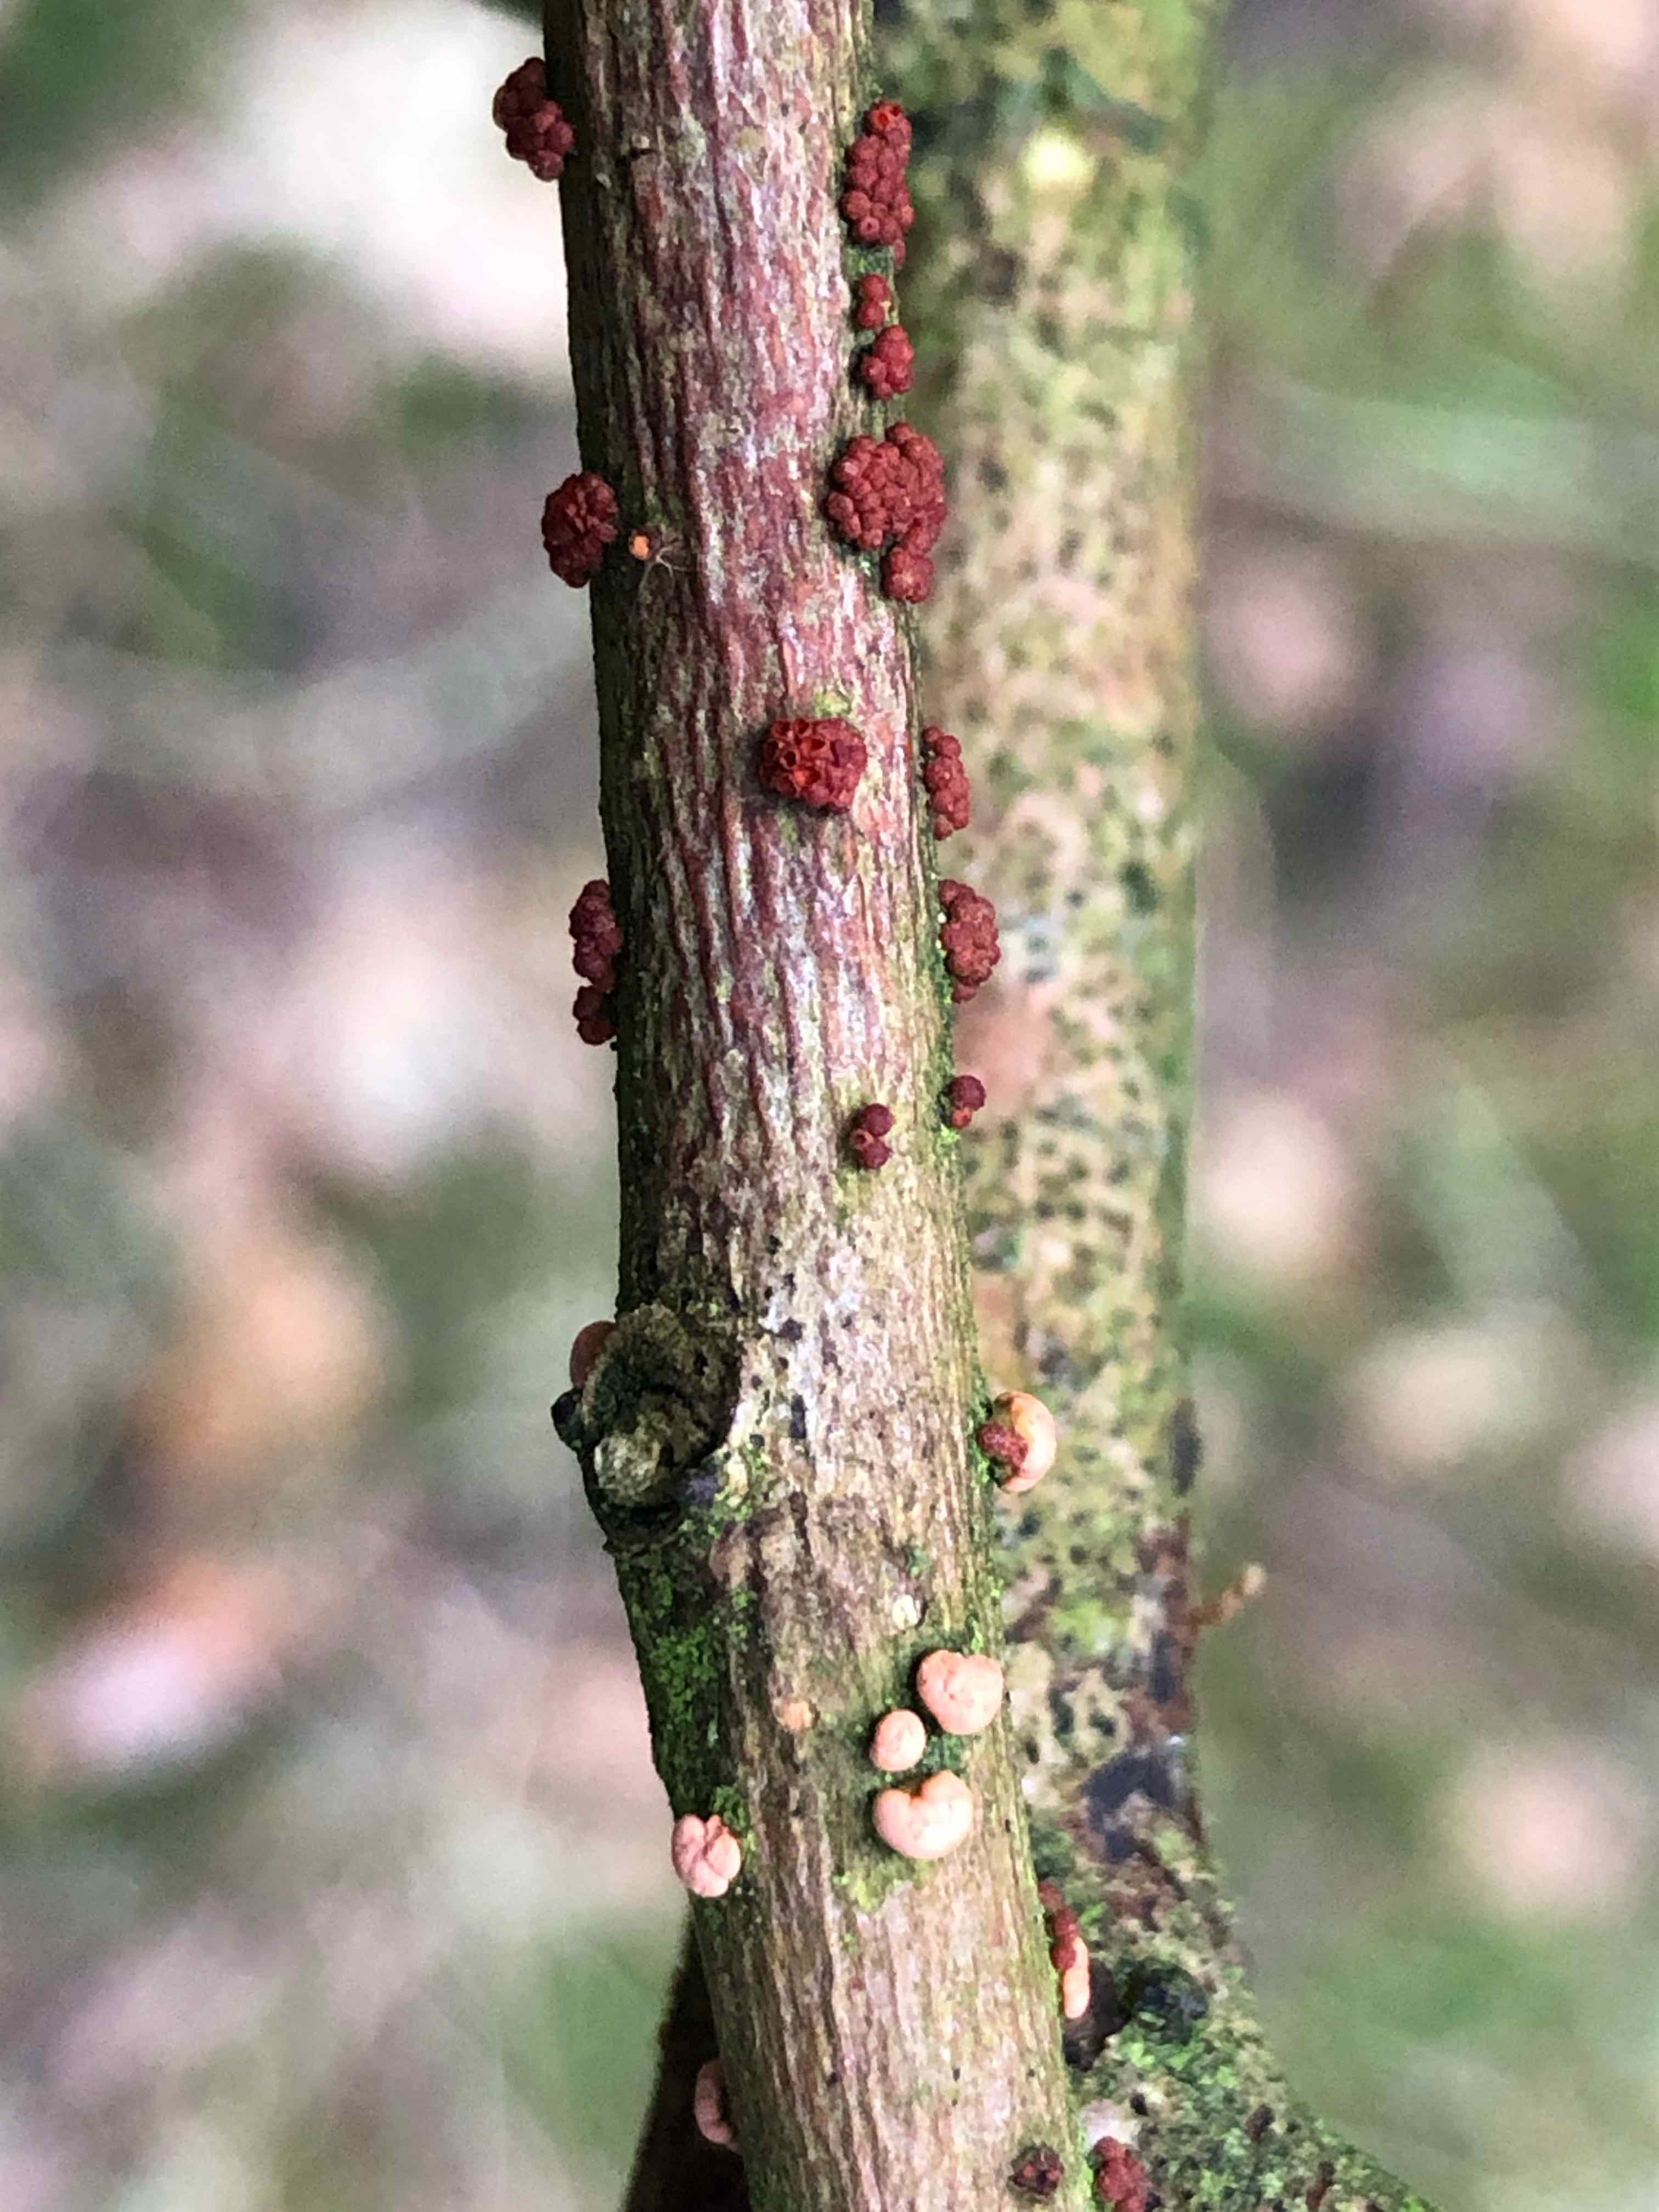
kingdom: Fungi
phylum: Ascomycota
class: Sordariomycetes
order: Hypocreales
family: Nectriaceae
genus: Nectria
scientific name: Nectria cinnabarina
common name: almindelig cinnobersvamp
